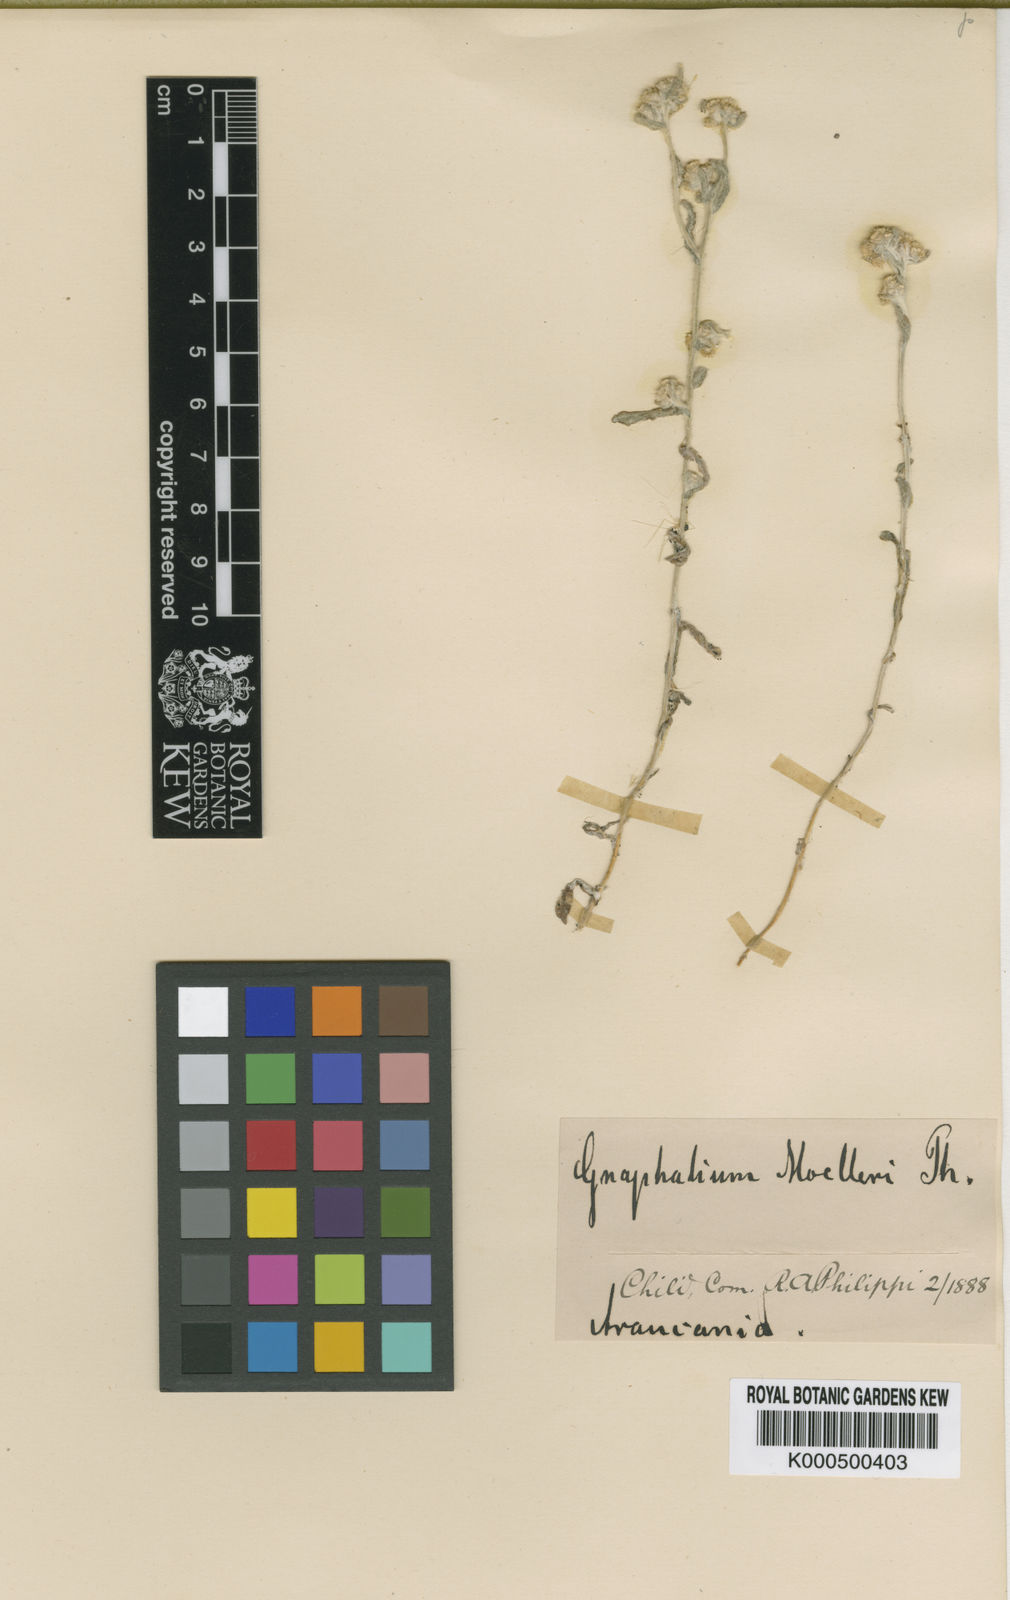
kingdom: Plantae
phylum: Tracheophyta
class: Magnoliopsida
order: Asterales
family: Asteraceae
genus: Pseudognaphalium
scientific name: Pseudognaphalium cymatoides
